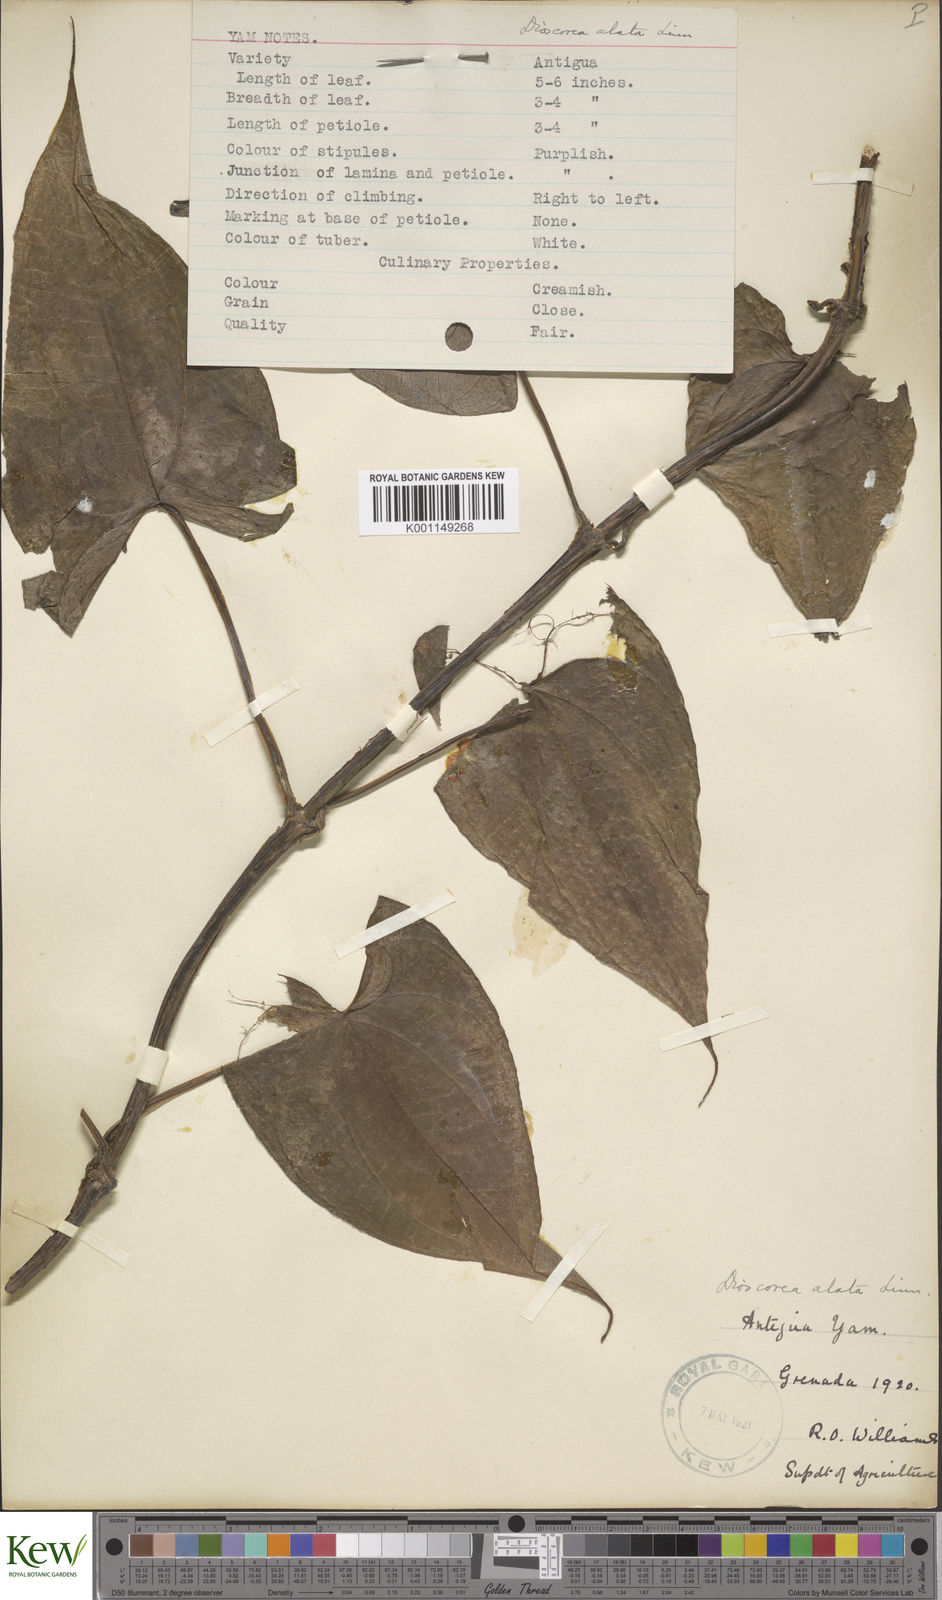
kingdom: Plantae
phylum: Tracheophyta
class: Liliopsida
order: Dioscoreales
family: Dioscoreaceae
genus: Dioscorea
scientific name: Dioscorea alata
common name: Water yam
